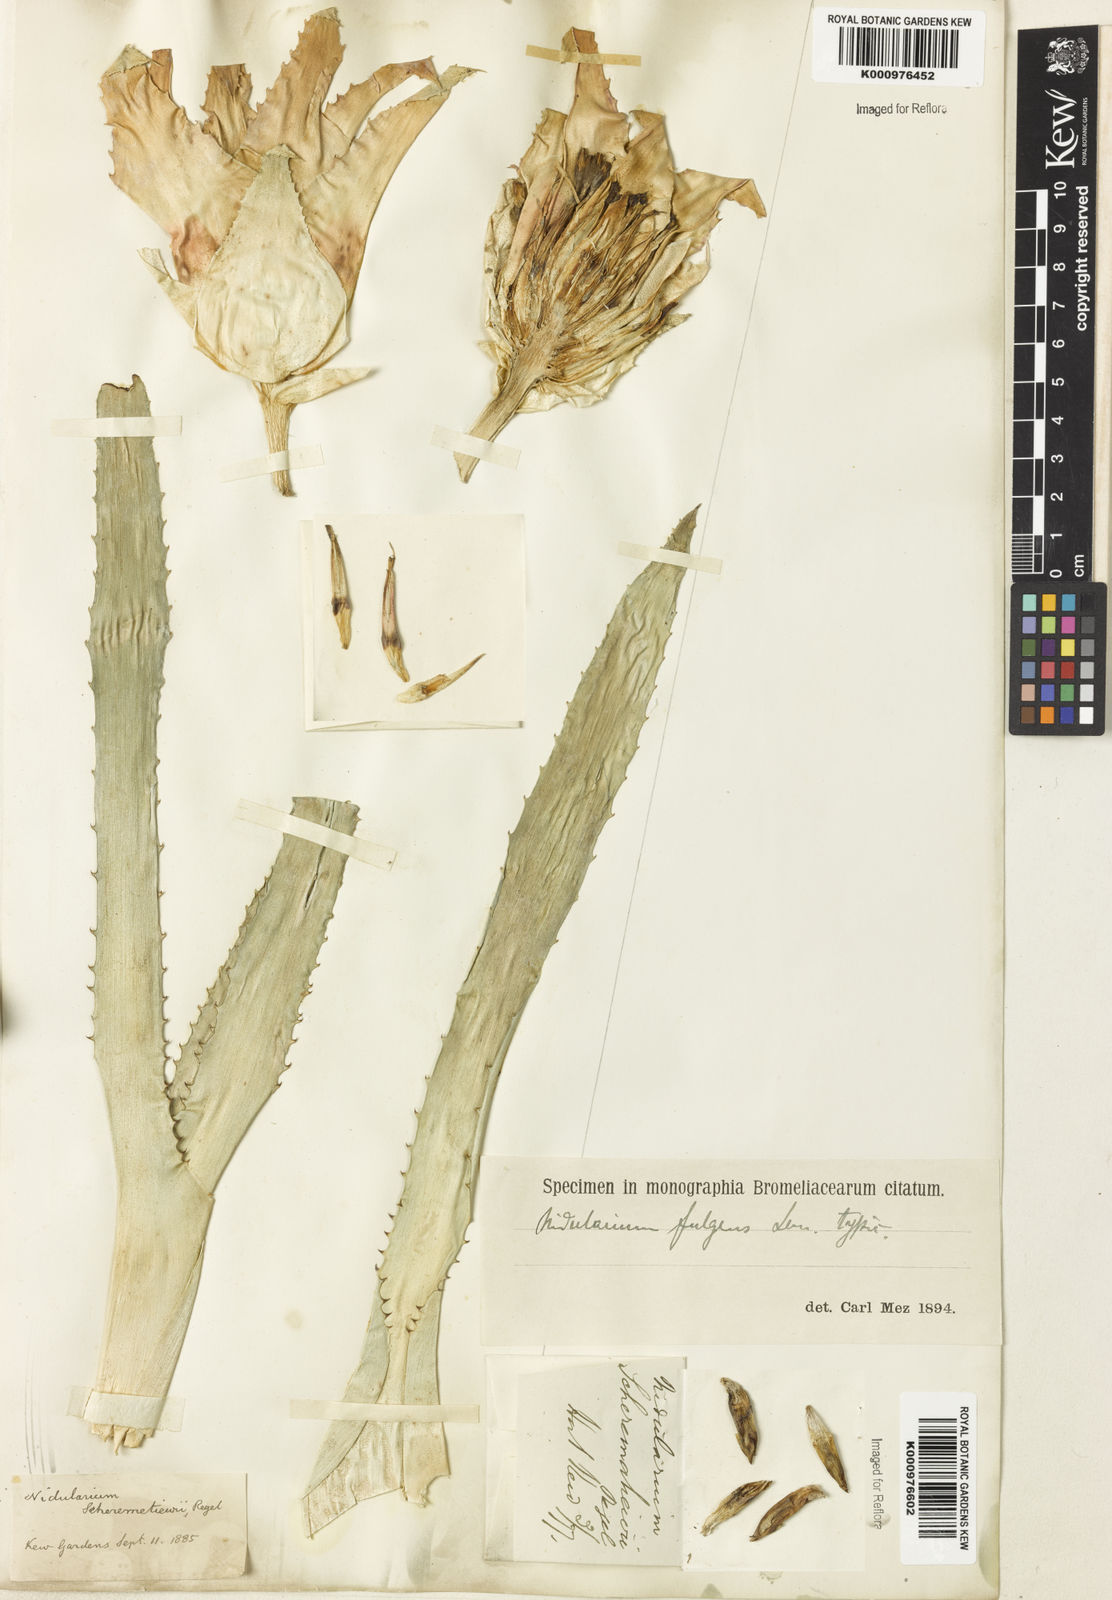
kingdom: Plantae
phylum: Tracheophyta
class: Liliopsida
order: Poales
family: Bromeliaceae
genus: Nidularium
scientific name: Nidularium fulgens
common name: Blushing bromeliad
